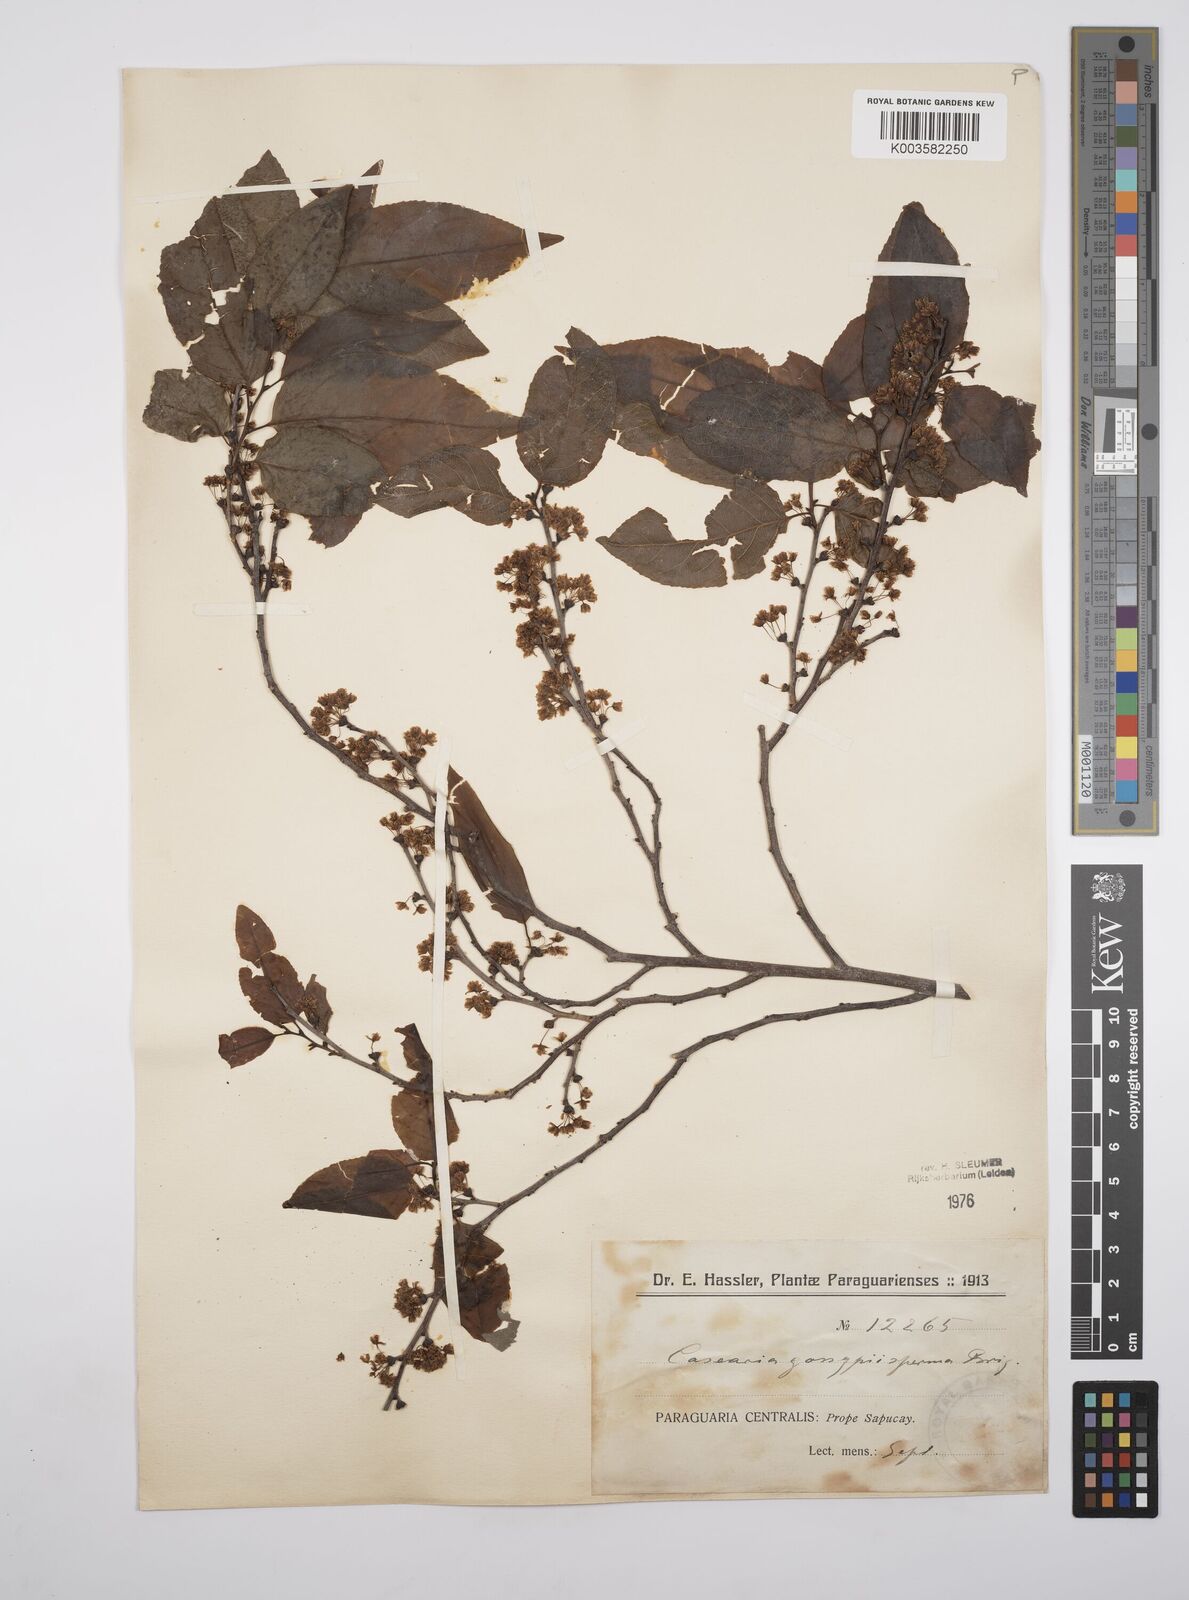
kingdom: Plantae
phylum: Tracheophyta
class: Magnoliopsida
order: Malpighiales
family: Salicaceae
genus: Casearia
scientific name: Casearia gossypiosperma
